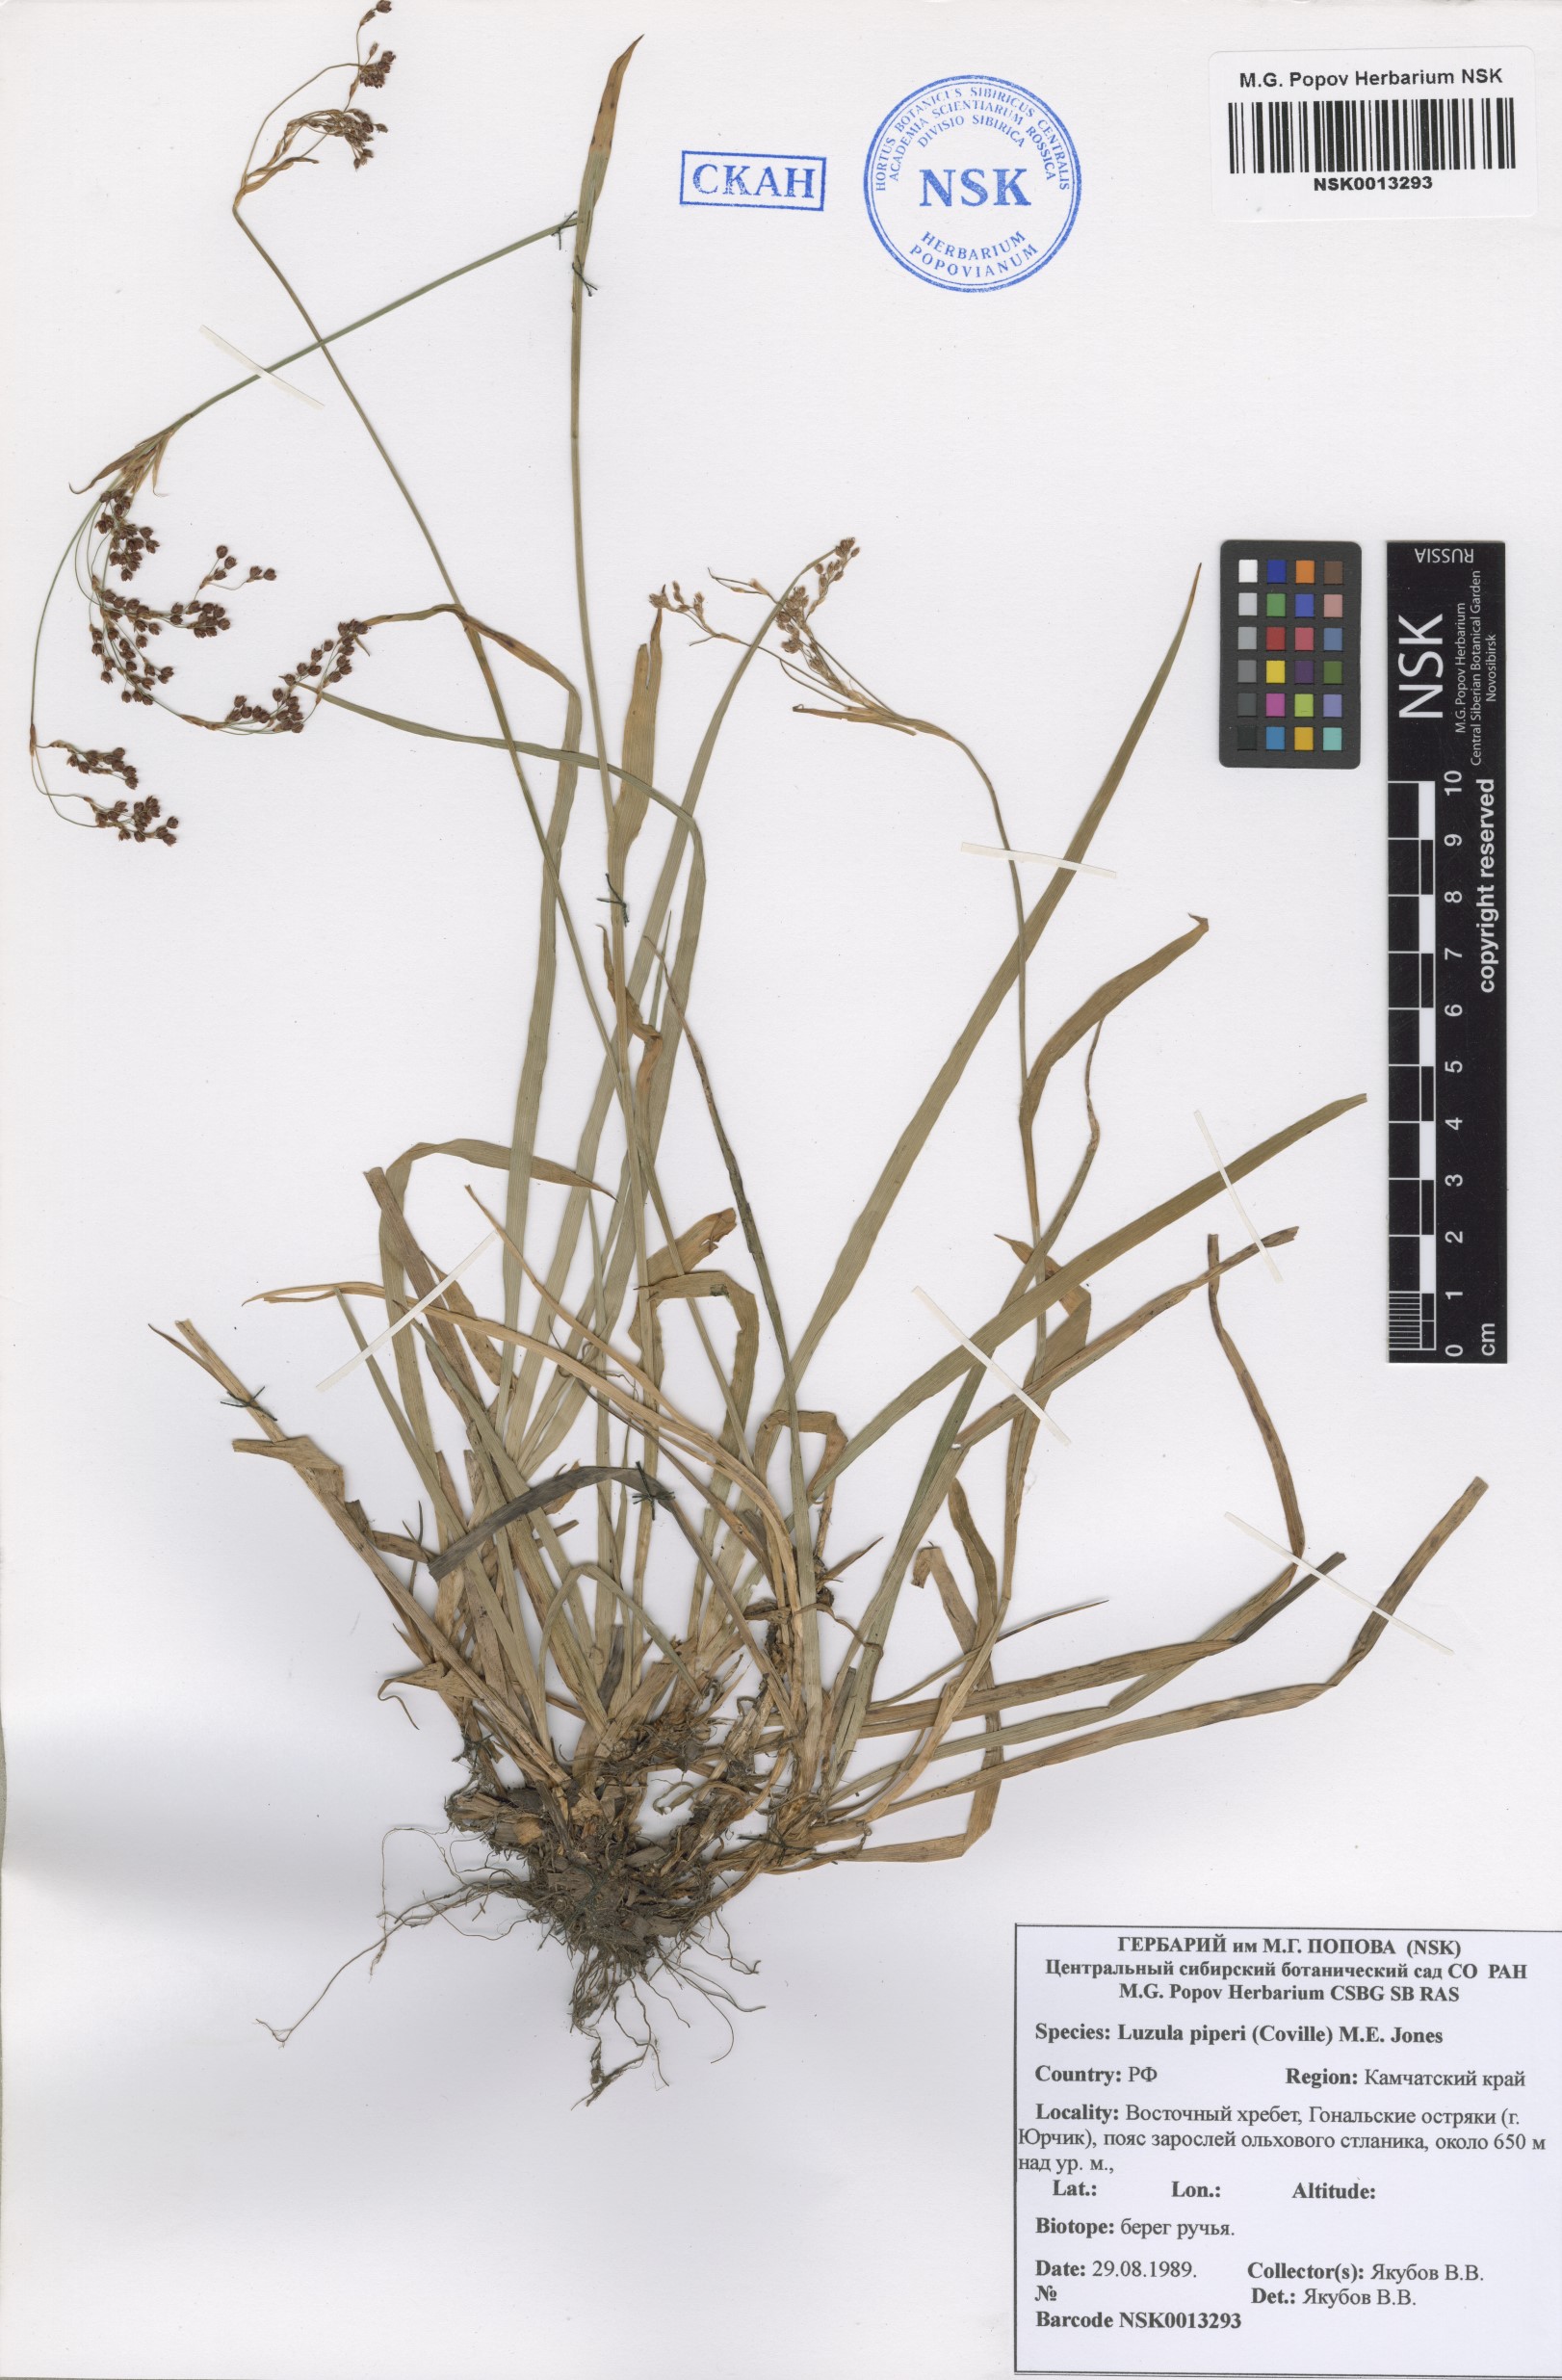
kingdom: Plantae
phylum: Tracheophyta
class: Liliopsida
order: Poales
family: Juncaceae
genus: Luzula
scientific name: Luzula piperi
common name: Piper's wood-rush
